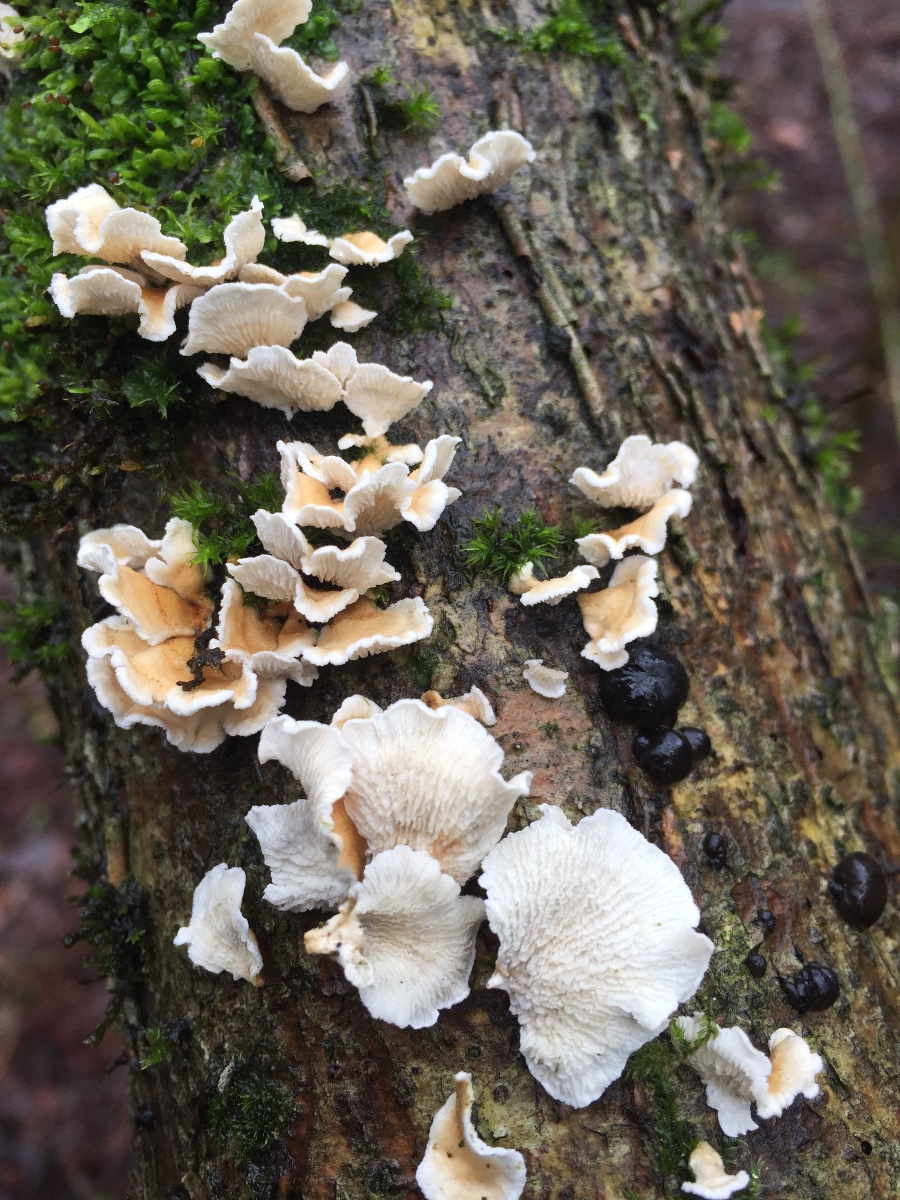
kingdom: Fungi
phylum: Basidiomycota
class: Agaricomycetes
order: Amylocorticiales
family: Amylocorticiaceae
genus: Plicaturopsis
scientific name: Plicaturopsis crispa
